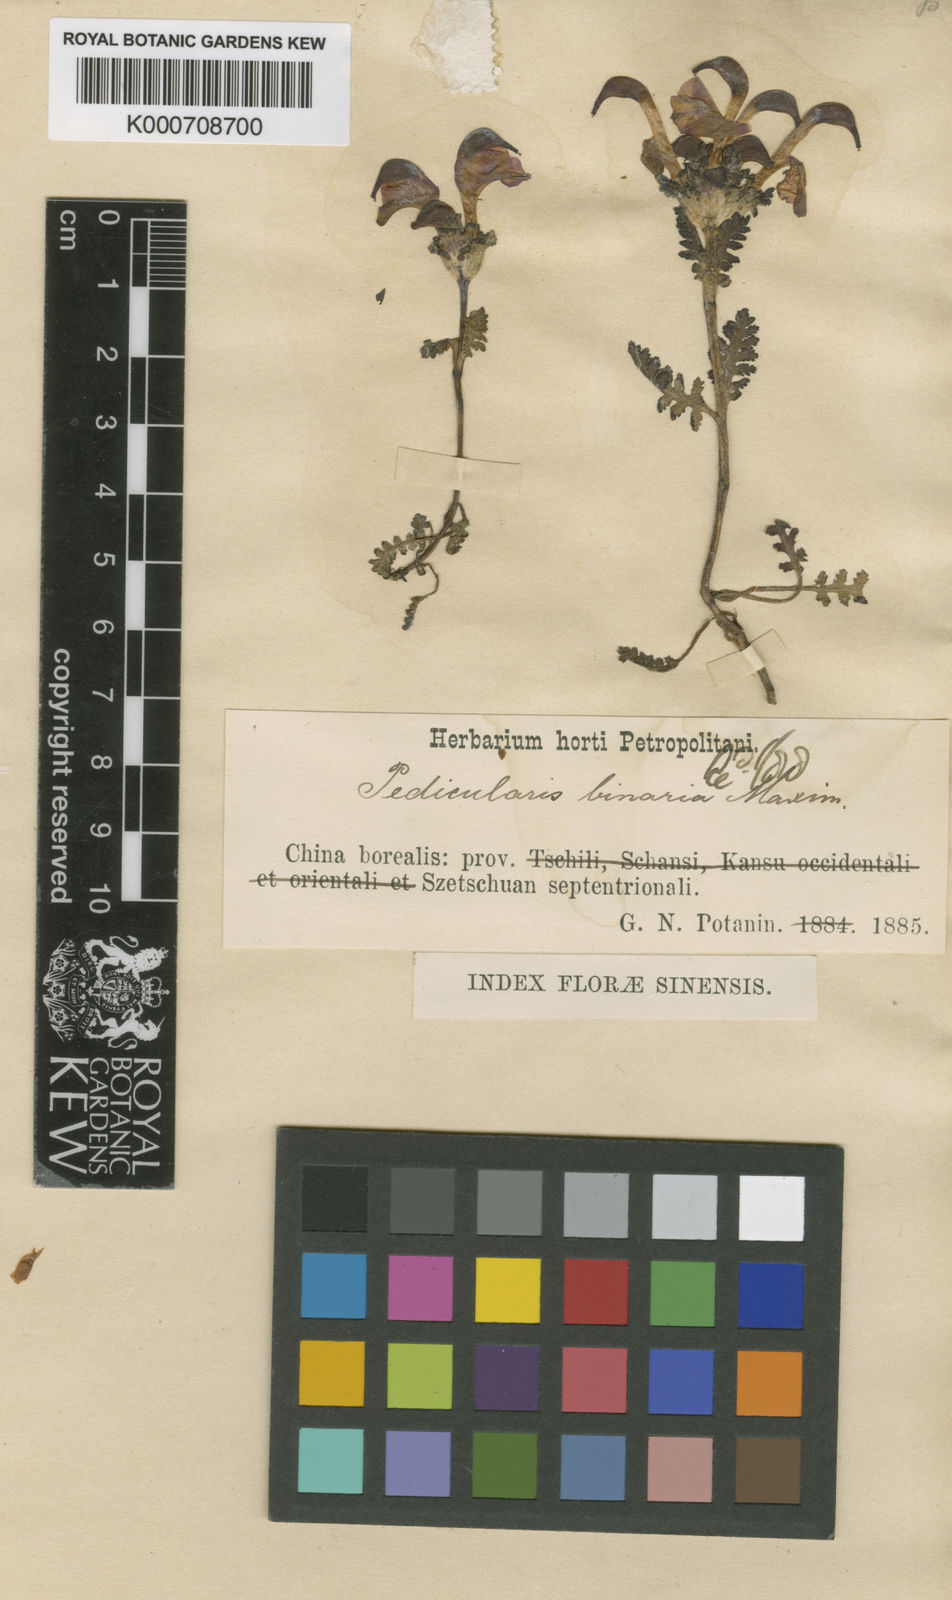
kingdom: Plantae
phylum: Tracheophyta
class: Magnoliopsida
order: Lamiales
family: Orobanchaceae
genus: Pedicularis
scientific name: Pedicularis binaria
